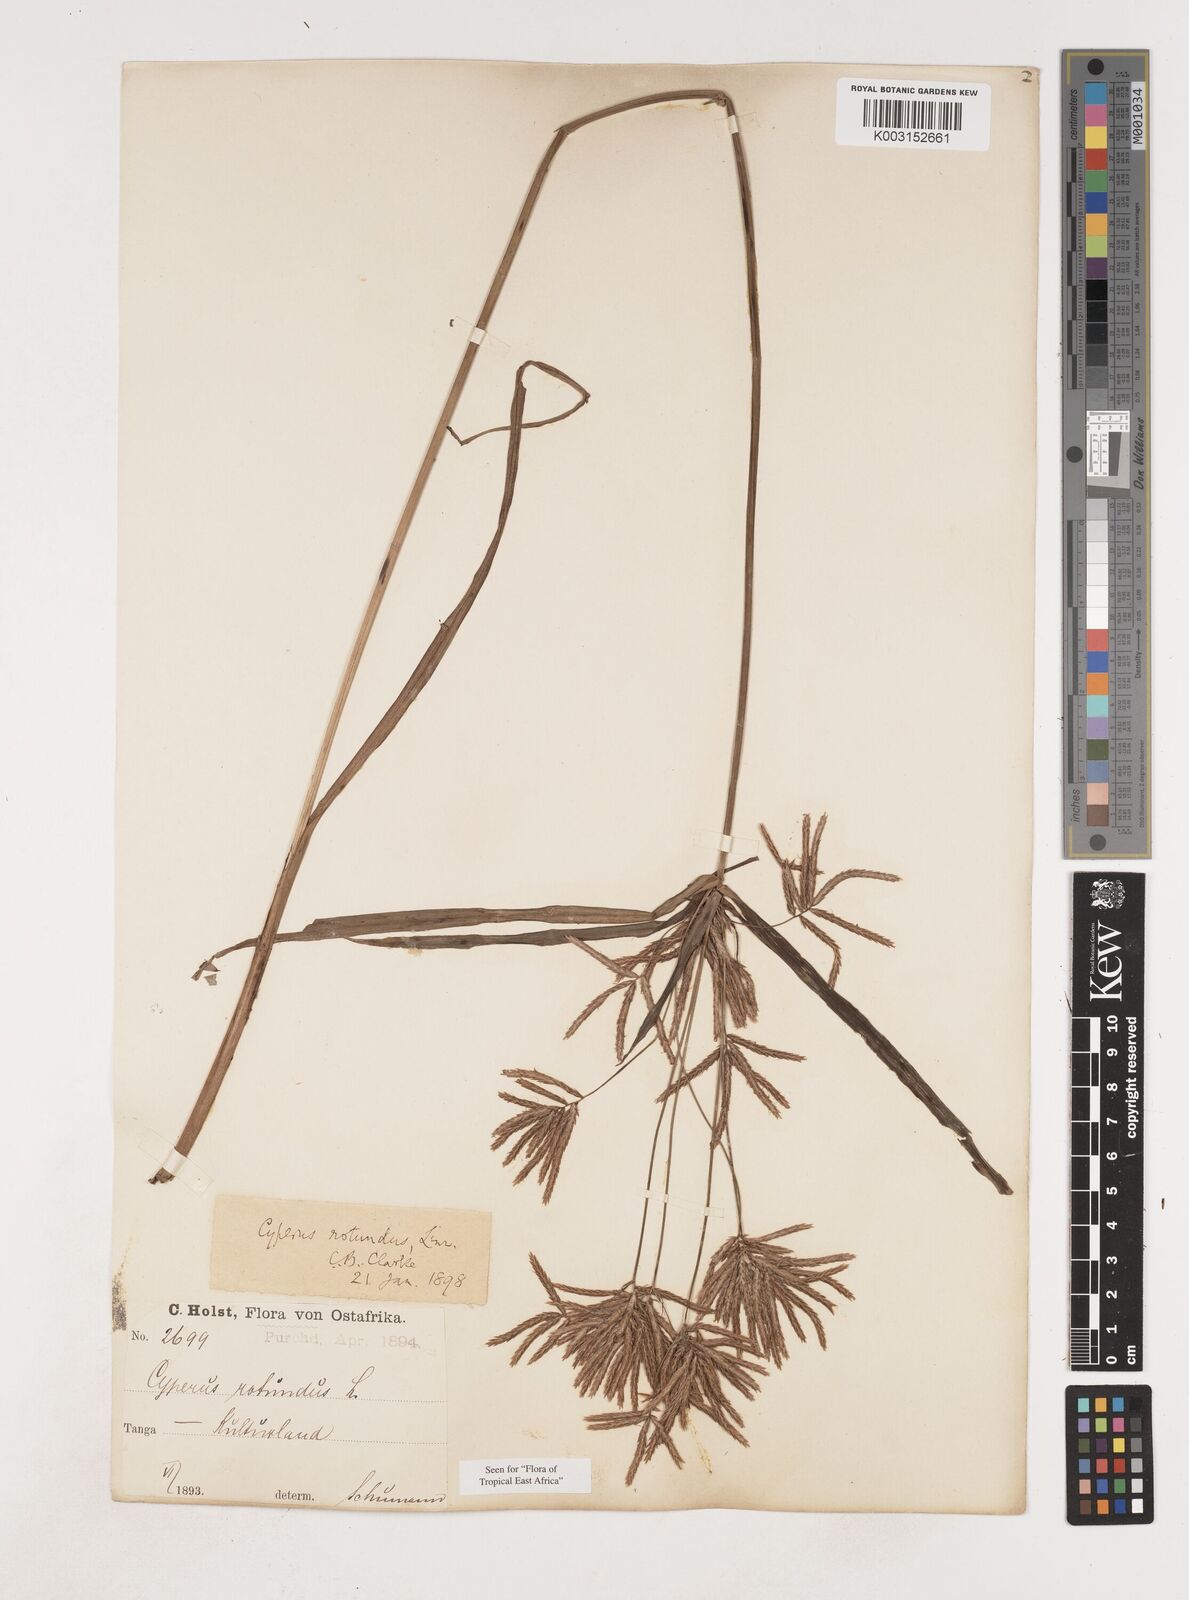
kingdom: Plantae
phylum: Tracheophyta
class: Liliopsida
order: Poales
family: Cyperaceae
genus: Cyperus
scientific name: Cyperus rotundus
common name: Nutgrass
